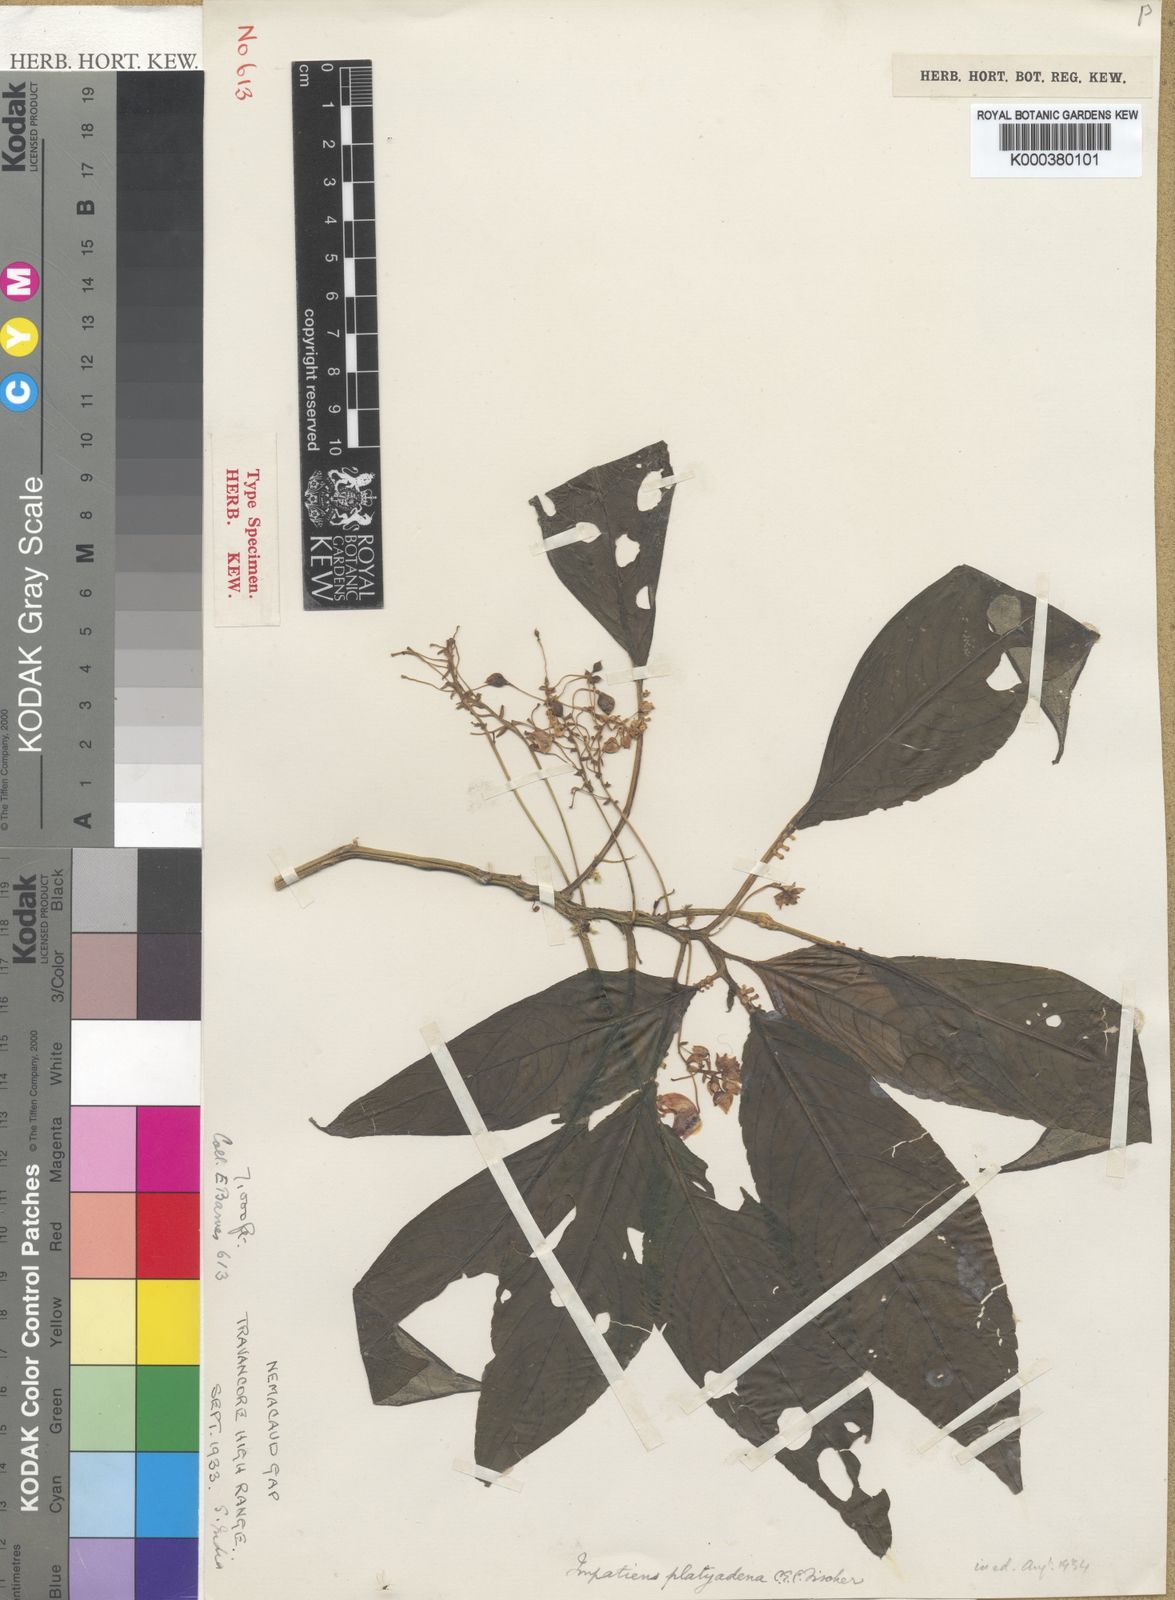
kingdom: Plantae
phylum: Tracheophyta
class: Magnoliopsida
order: Ericales
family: Balsaminaceae
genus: Impatiens
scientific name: Impatiens platyadena
